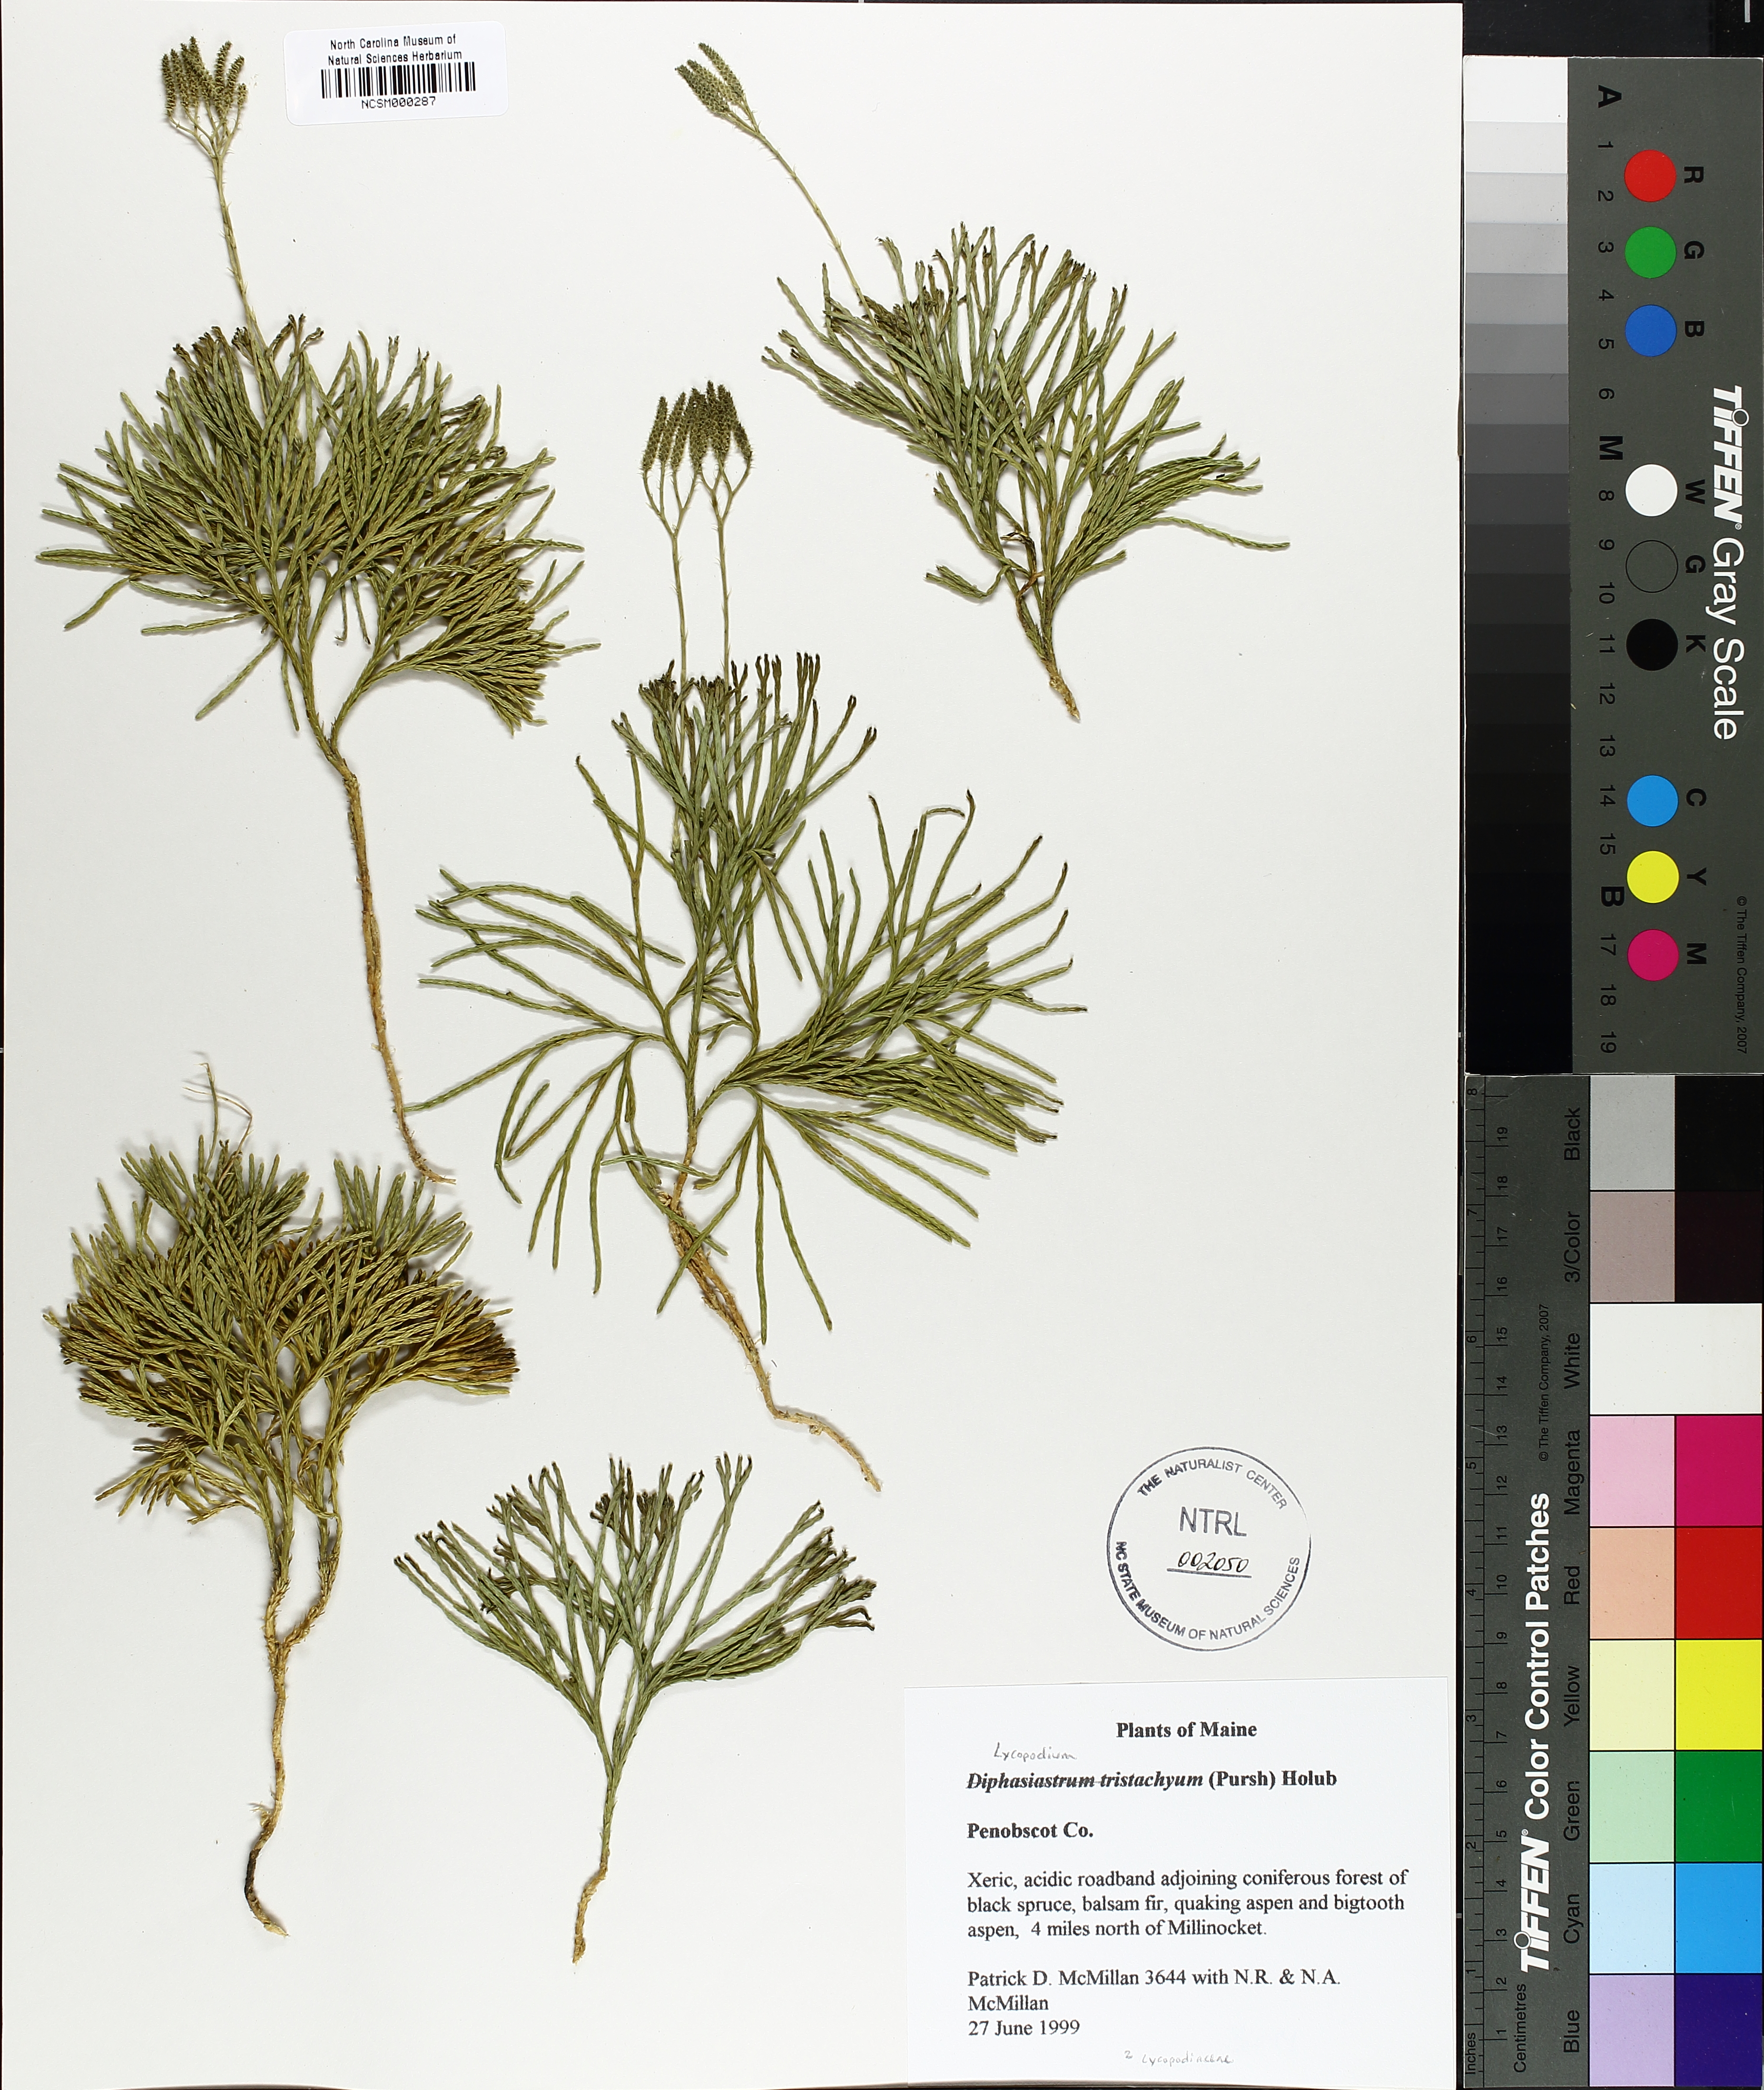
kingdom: Plantae
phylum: Tracheophyta
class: Lycopodiopsida
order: Lycopodiales
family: Lycopodiaceae
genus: Diphasiastrum
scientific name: Diphasiastrum tristachyum
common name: Blue ground-cedar
